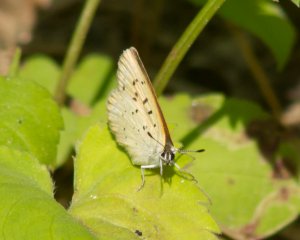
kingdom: Animalia
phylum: Arthropoda
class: Insecta
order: Lepidoptera
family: Sesiidae
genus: Sesia
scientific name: Sesia Lycaena epixanthe
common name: Bog Copper
